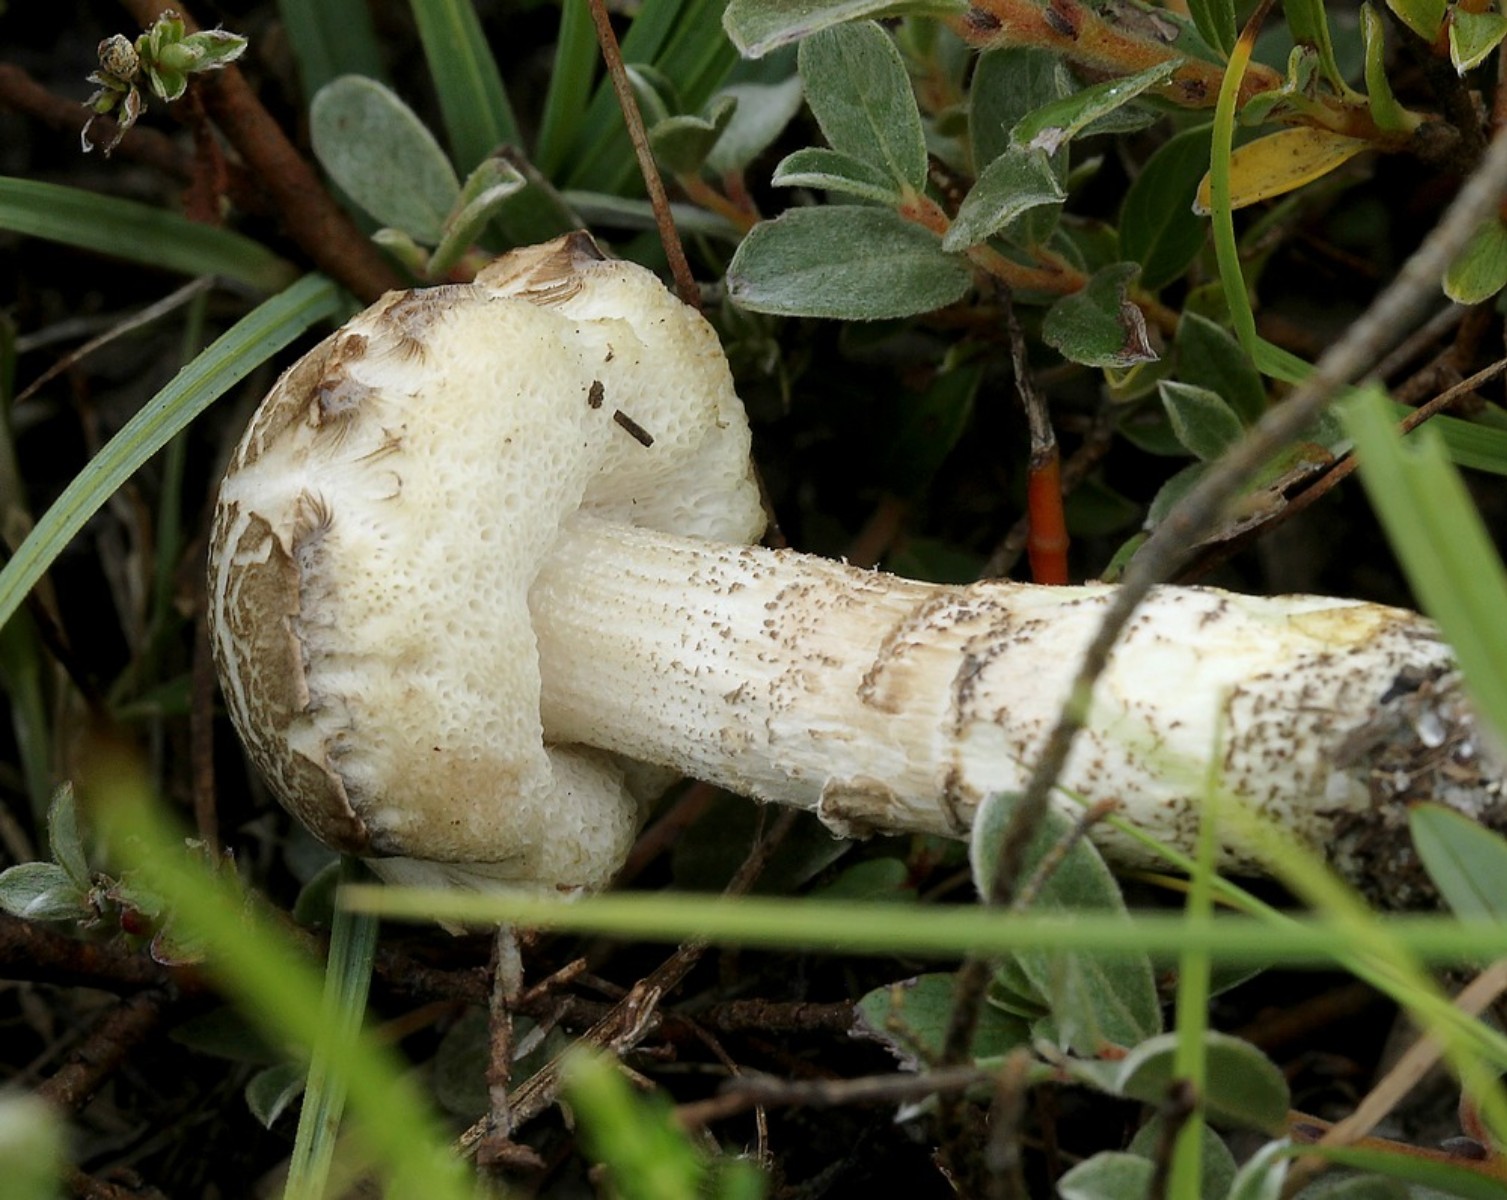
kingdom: Fungi
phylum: Basidiomycota
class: Agaricomycetes
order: Boletales
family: Boletaceae
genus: Leccinum
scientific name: Leccinum
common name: skælrørhat
